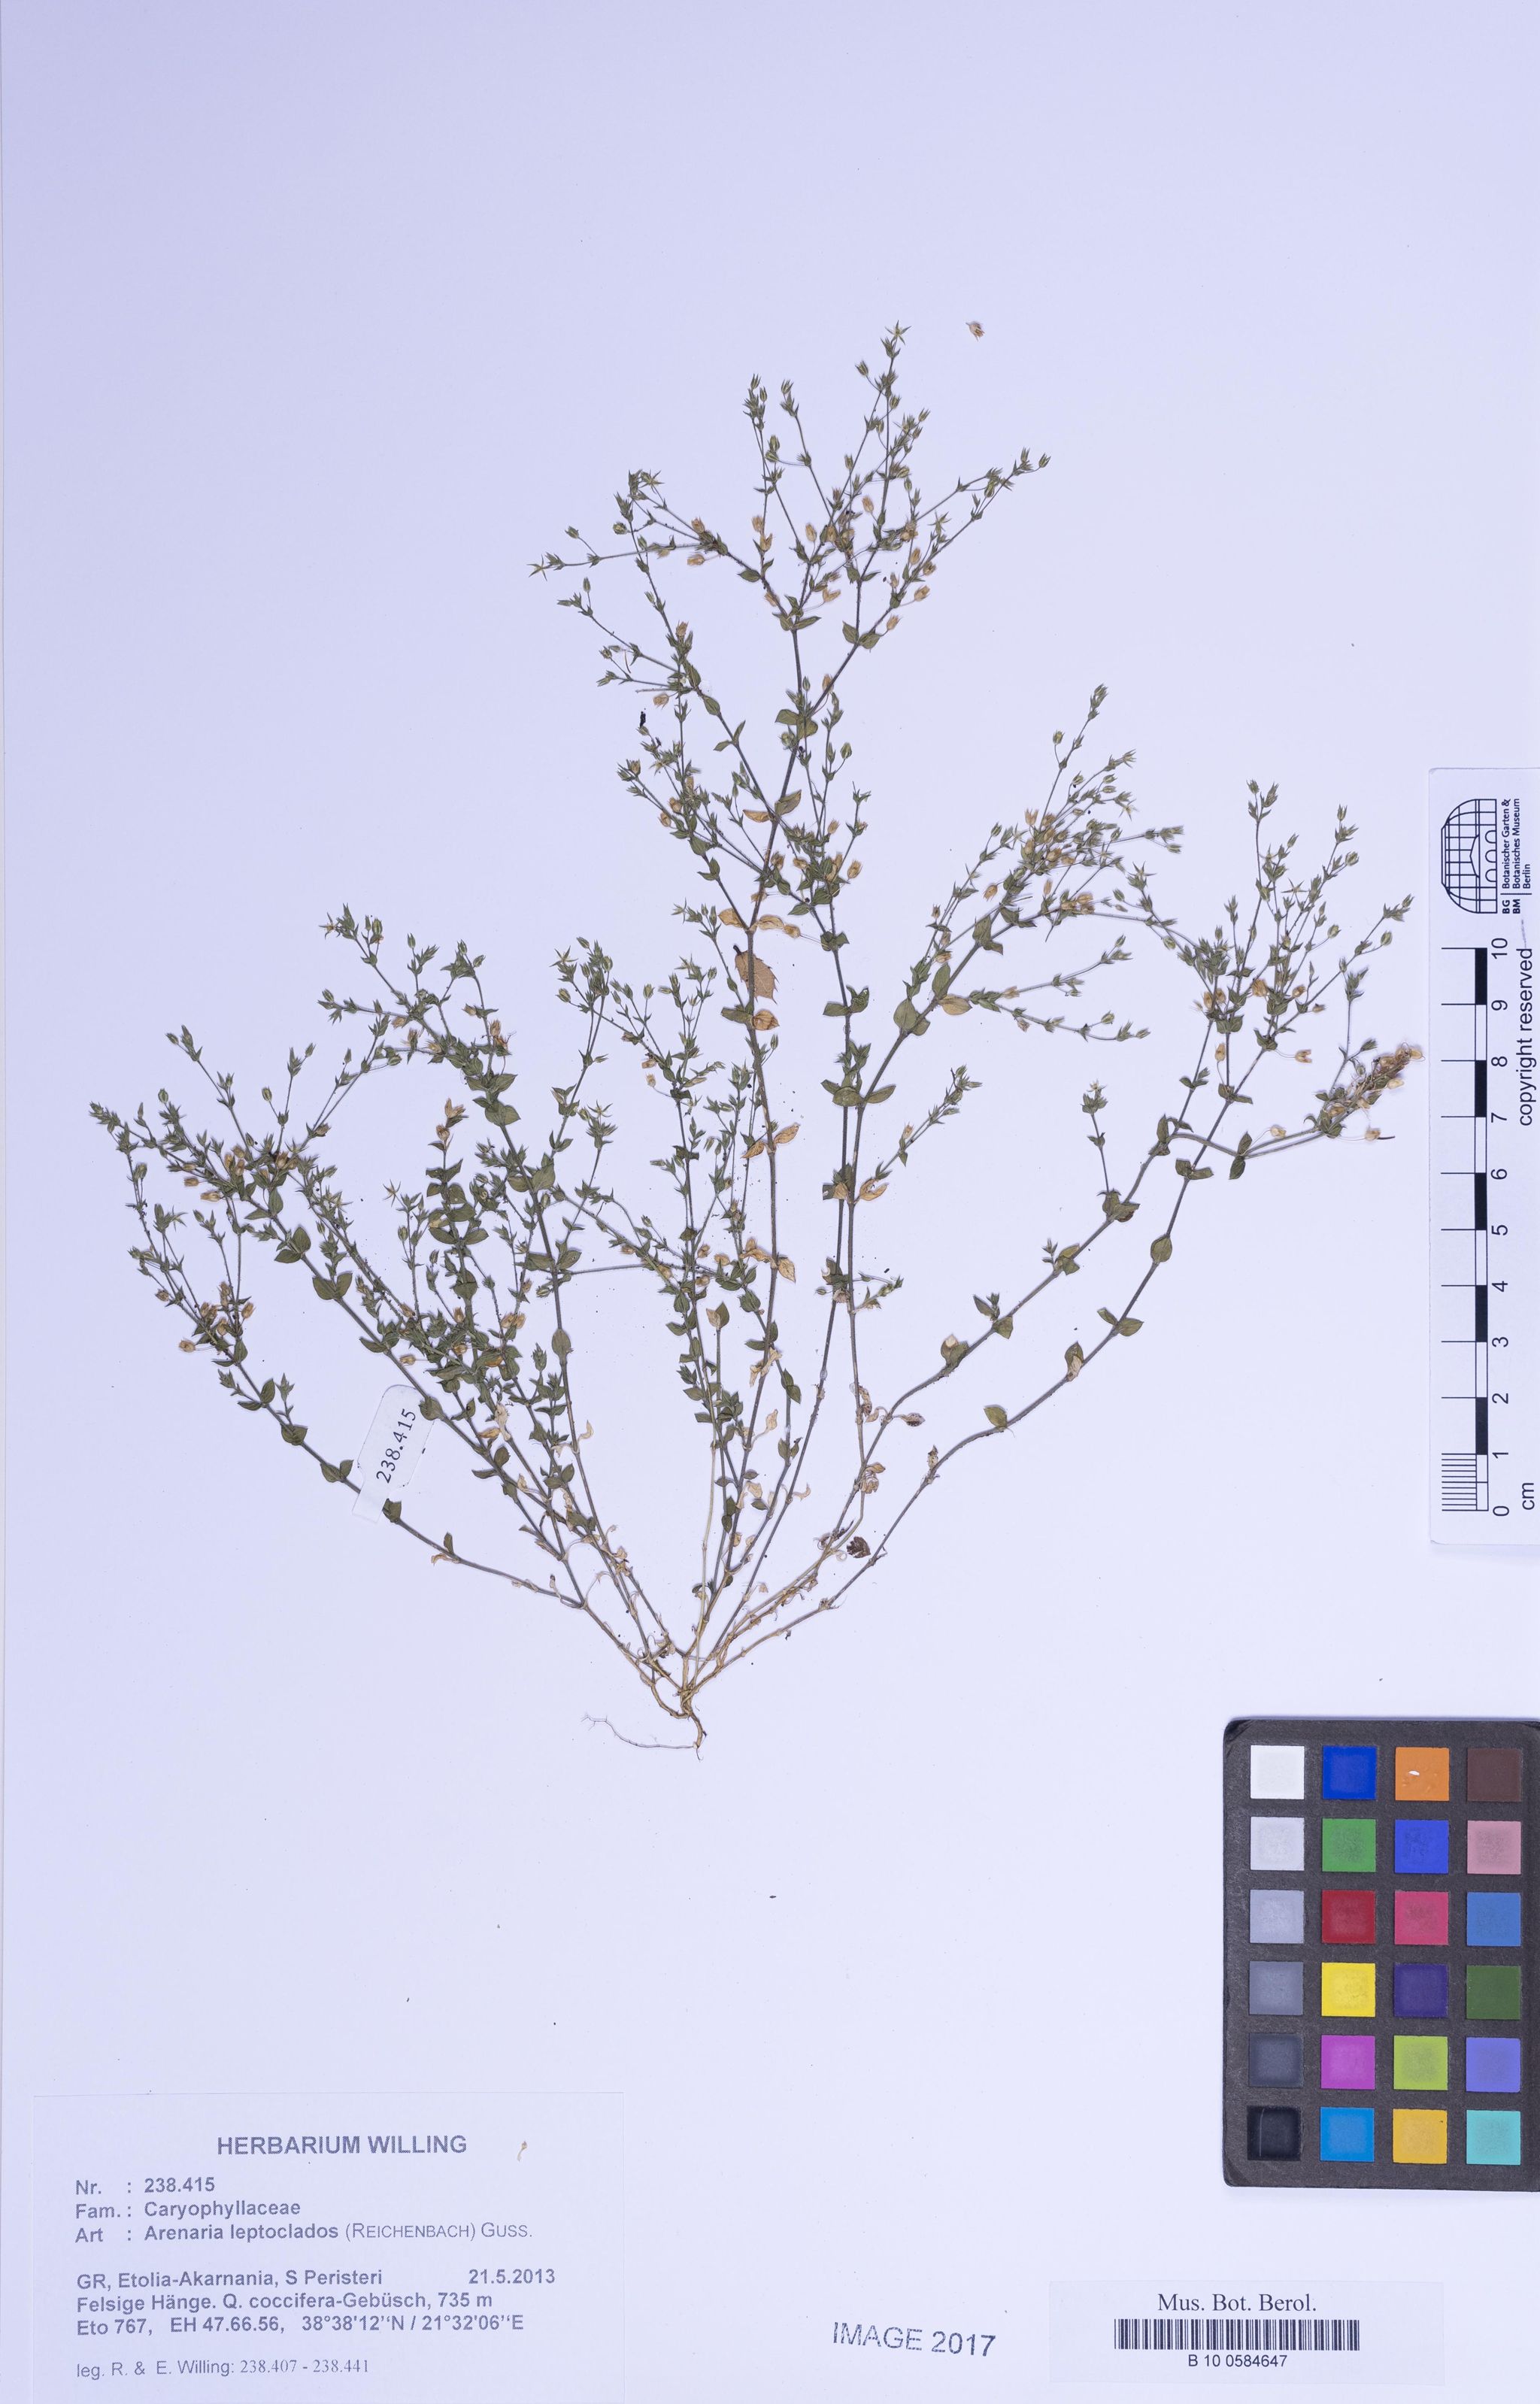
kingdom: Plantae
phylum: Tracheophyta
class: Magnoliopsida
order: Caryophyllales
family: Caryophyllaceae
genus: Arenaria
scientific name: Arenaria leptoclados
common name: Thyme-leaved sandwort
